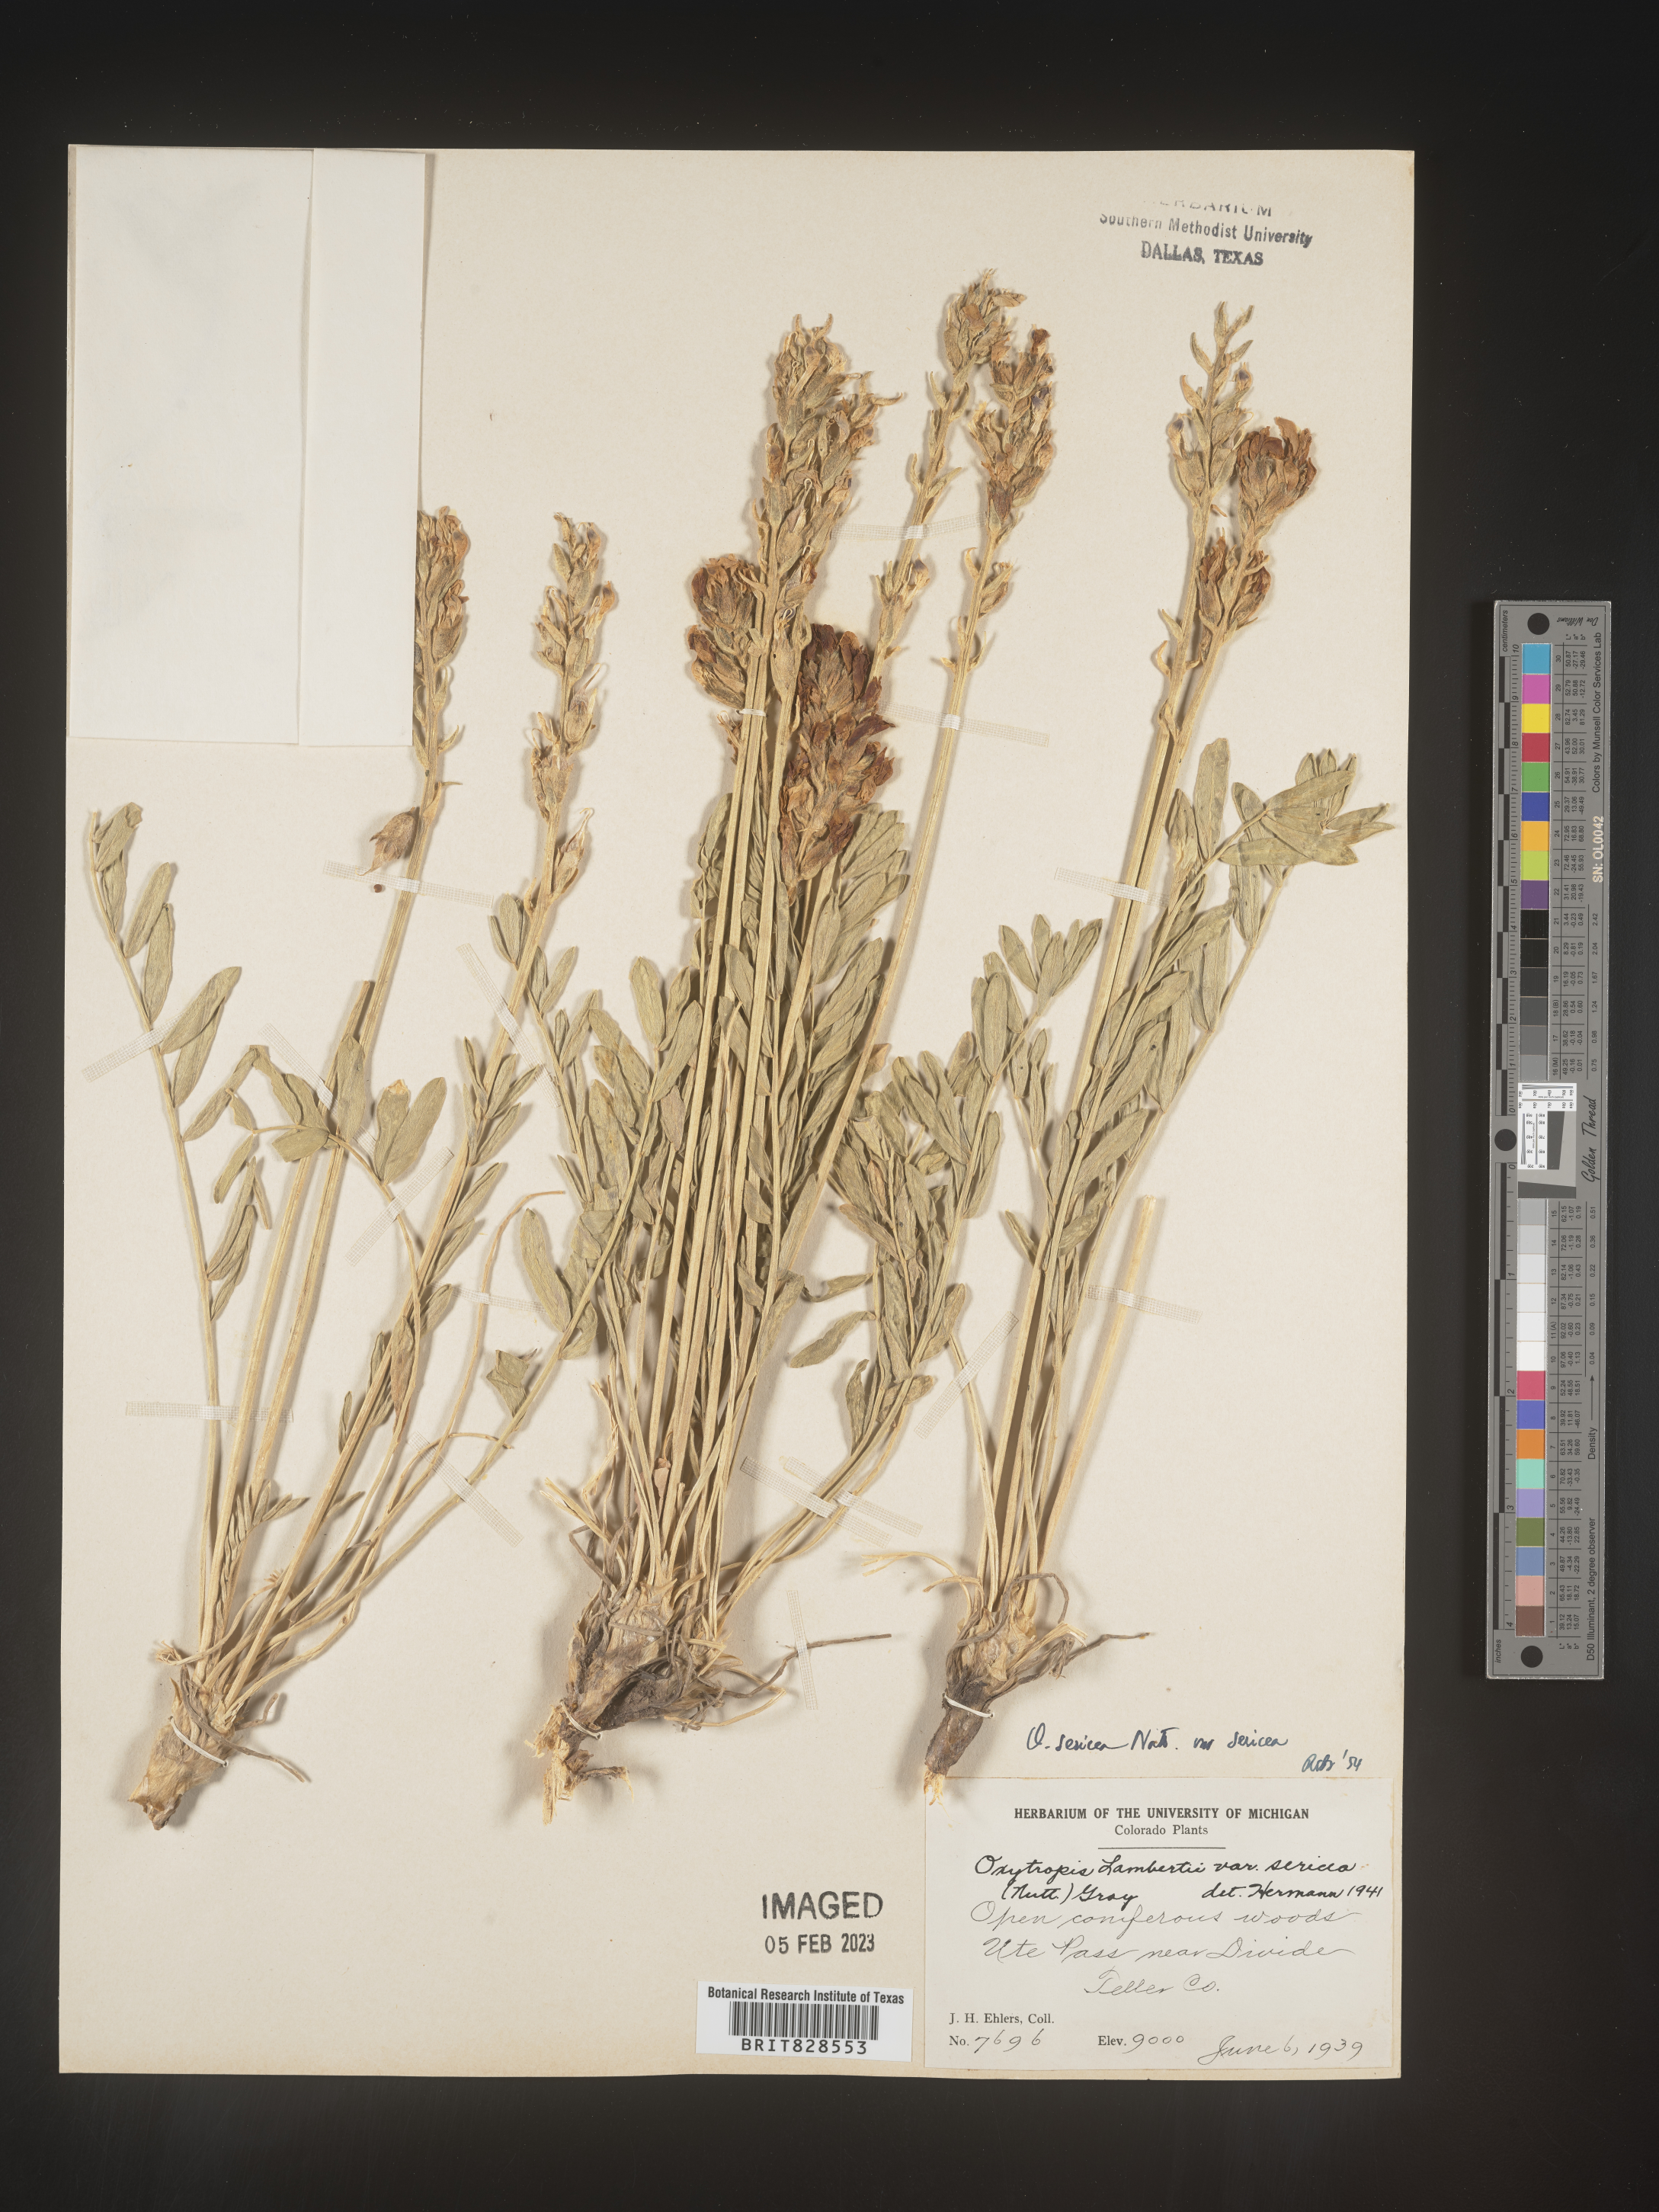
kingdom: Plantae
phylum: Tracheophyta
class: Magnoliopsida
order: Fabales
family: Fabaceae
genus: Oxytropis
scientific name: Oxytropis sericea
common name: Silky locoweed
